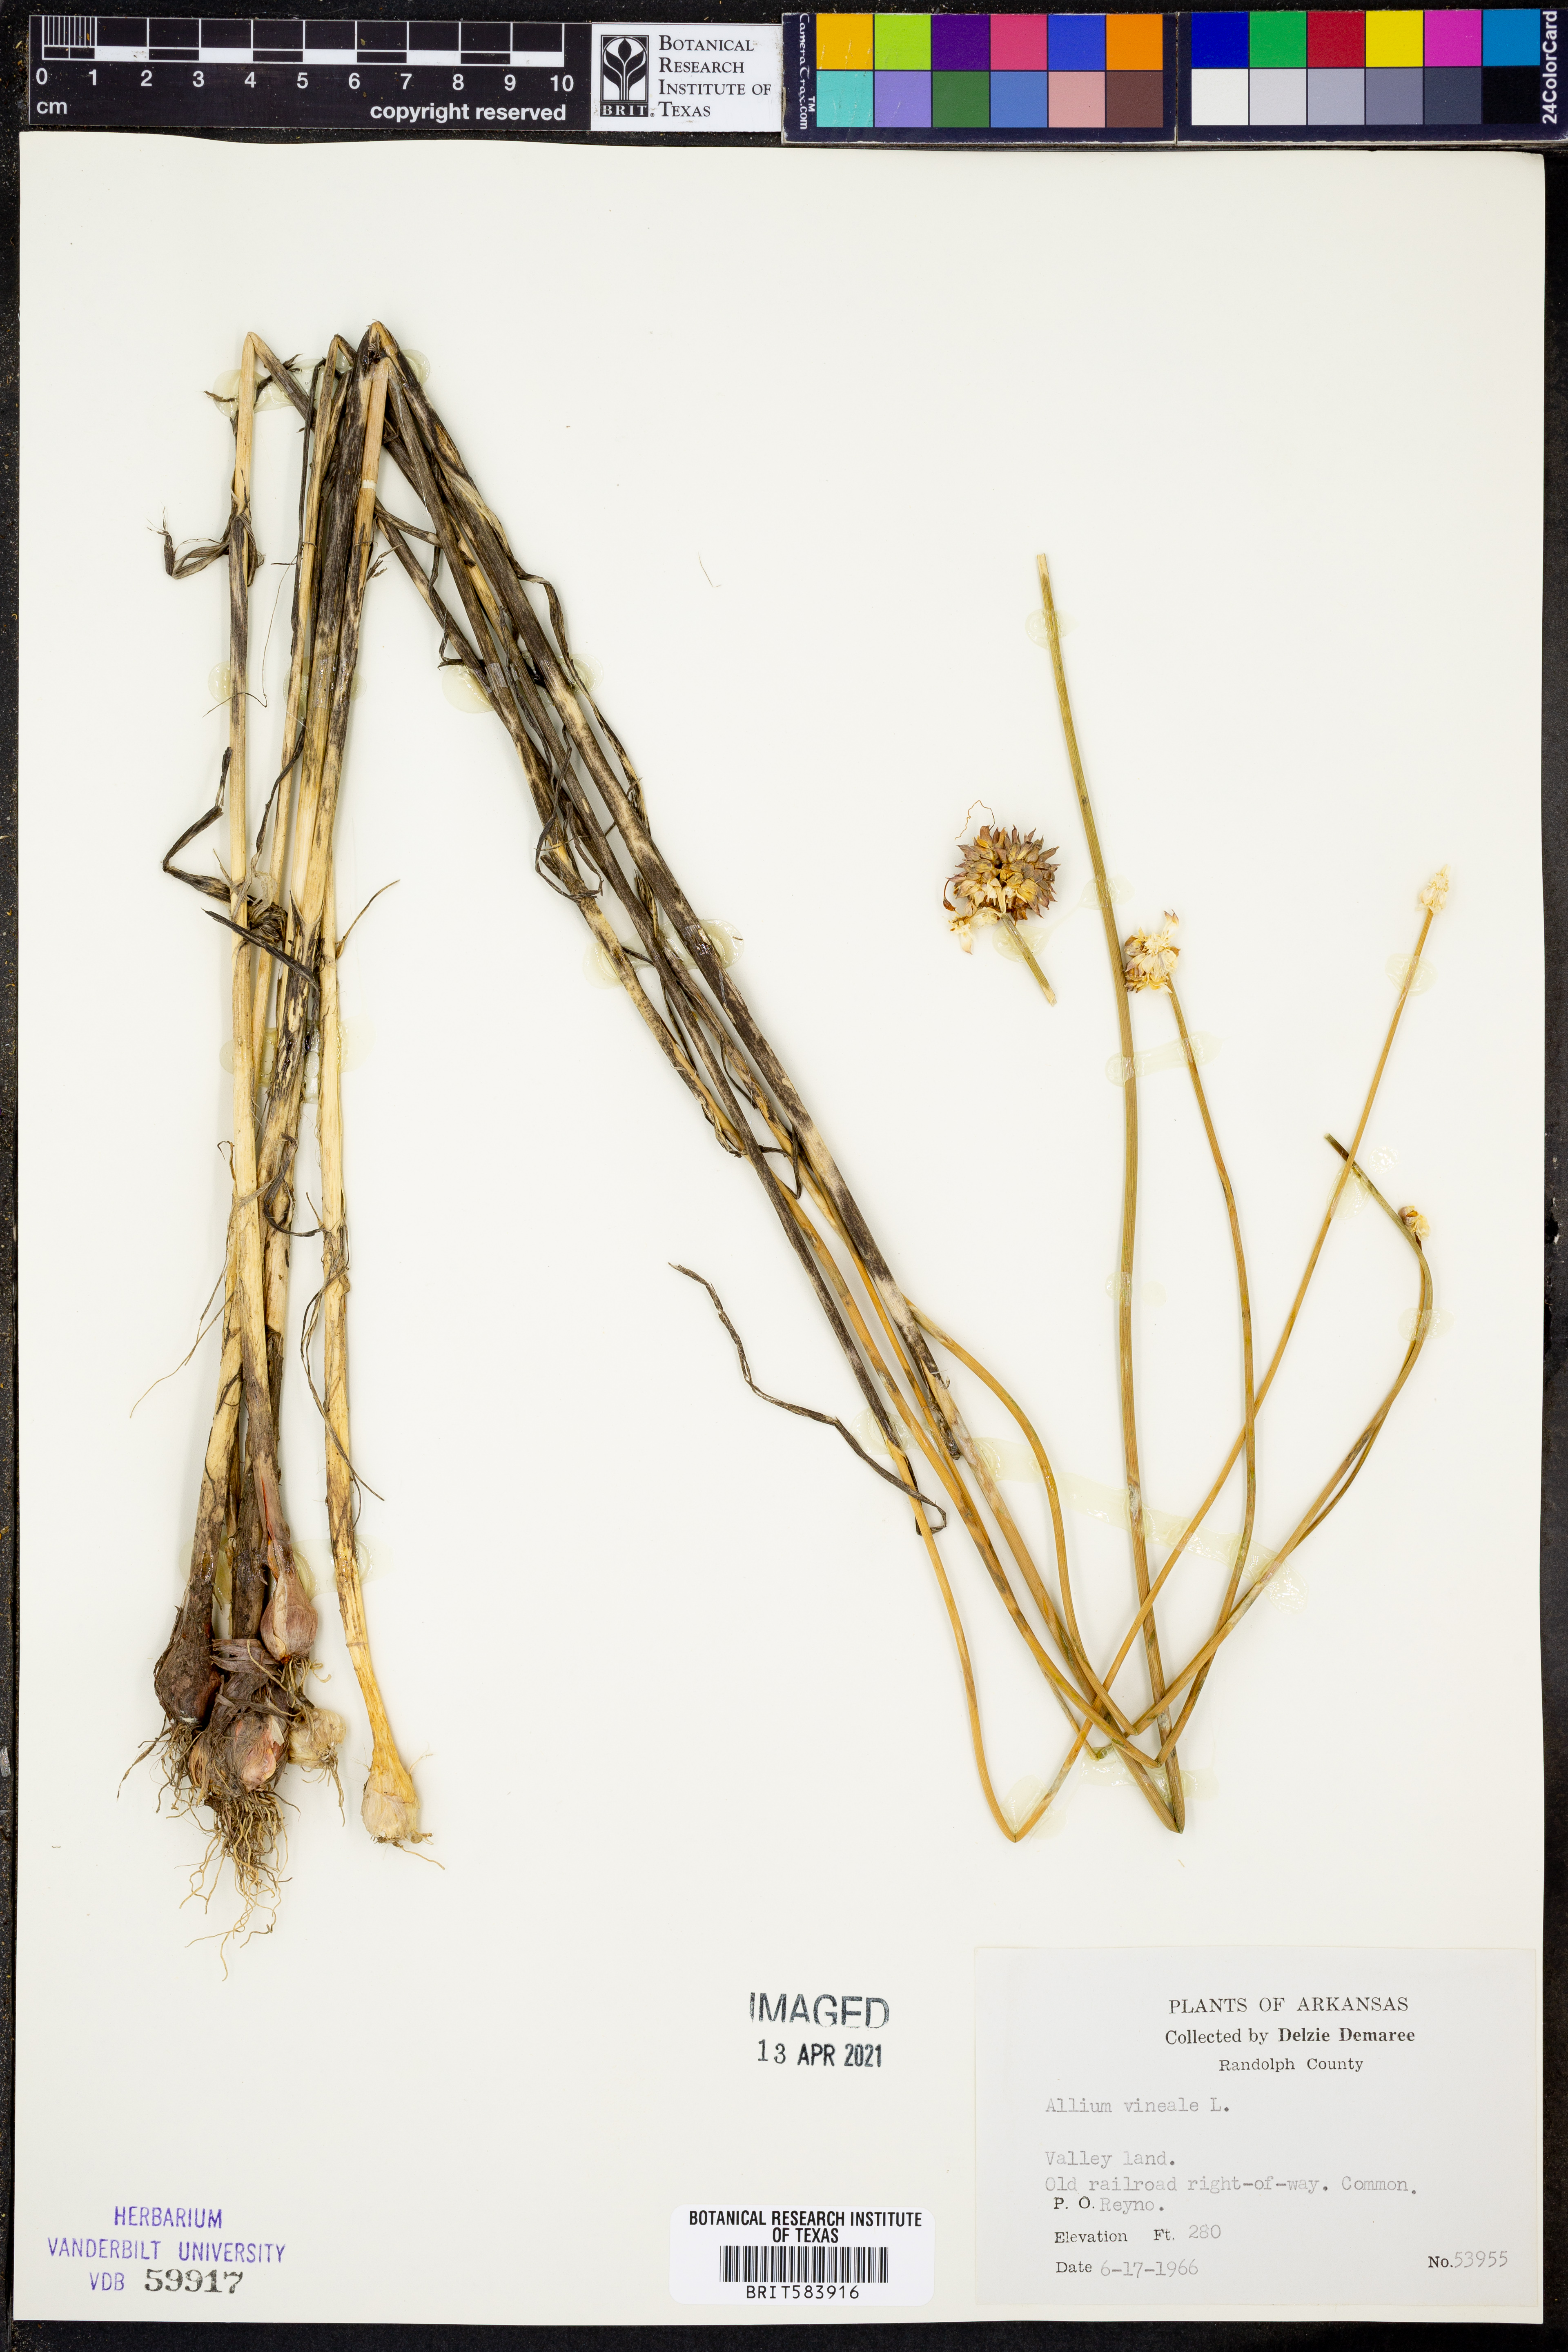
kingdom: Plantae
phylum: Tracheophyta
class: Liliopsida
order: Asparagales
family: Amaryllidaceae
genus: Allium
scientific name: Allium vineale
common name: Crow garlic
